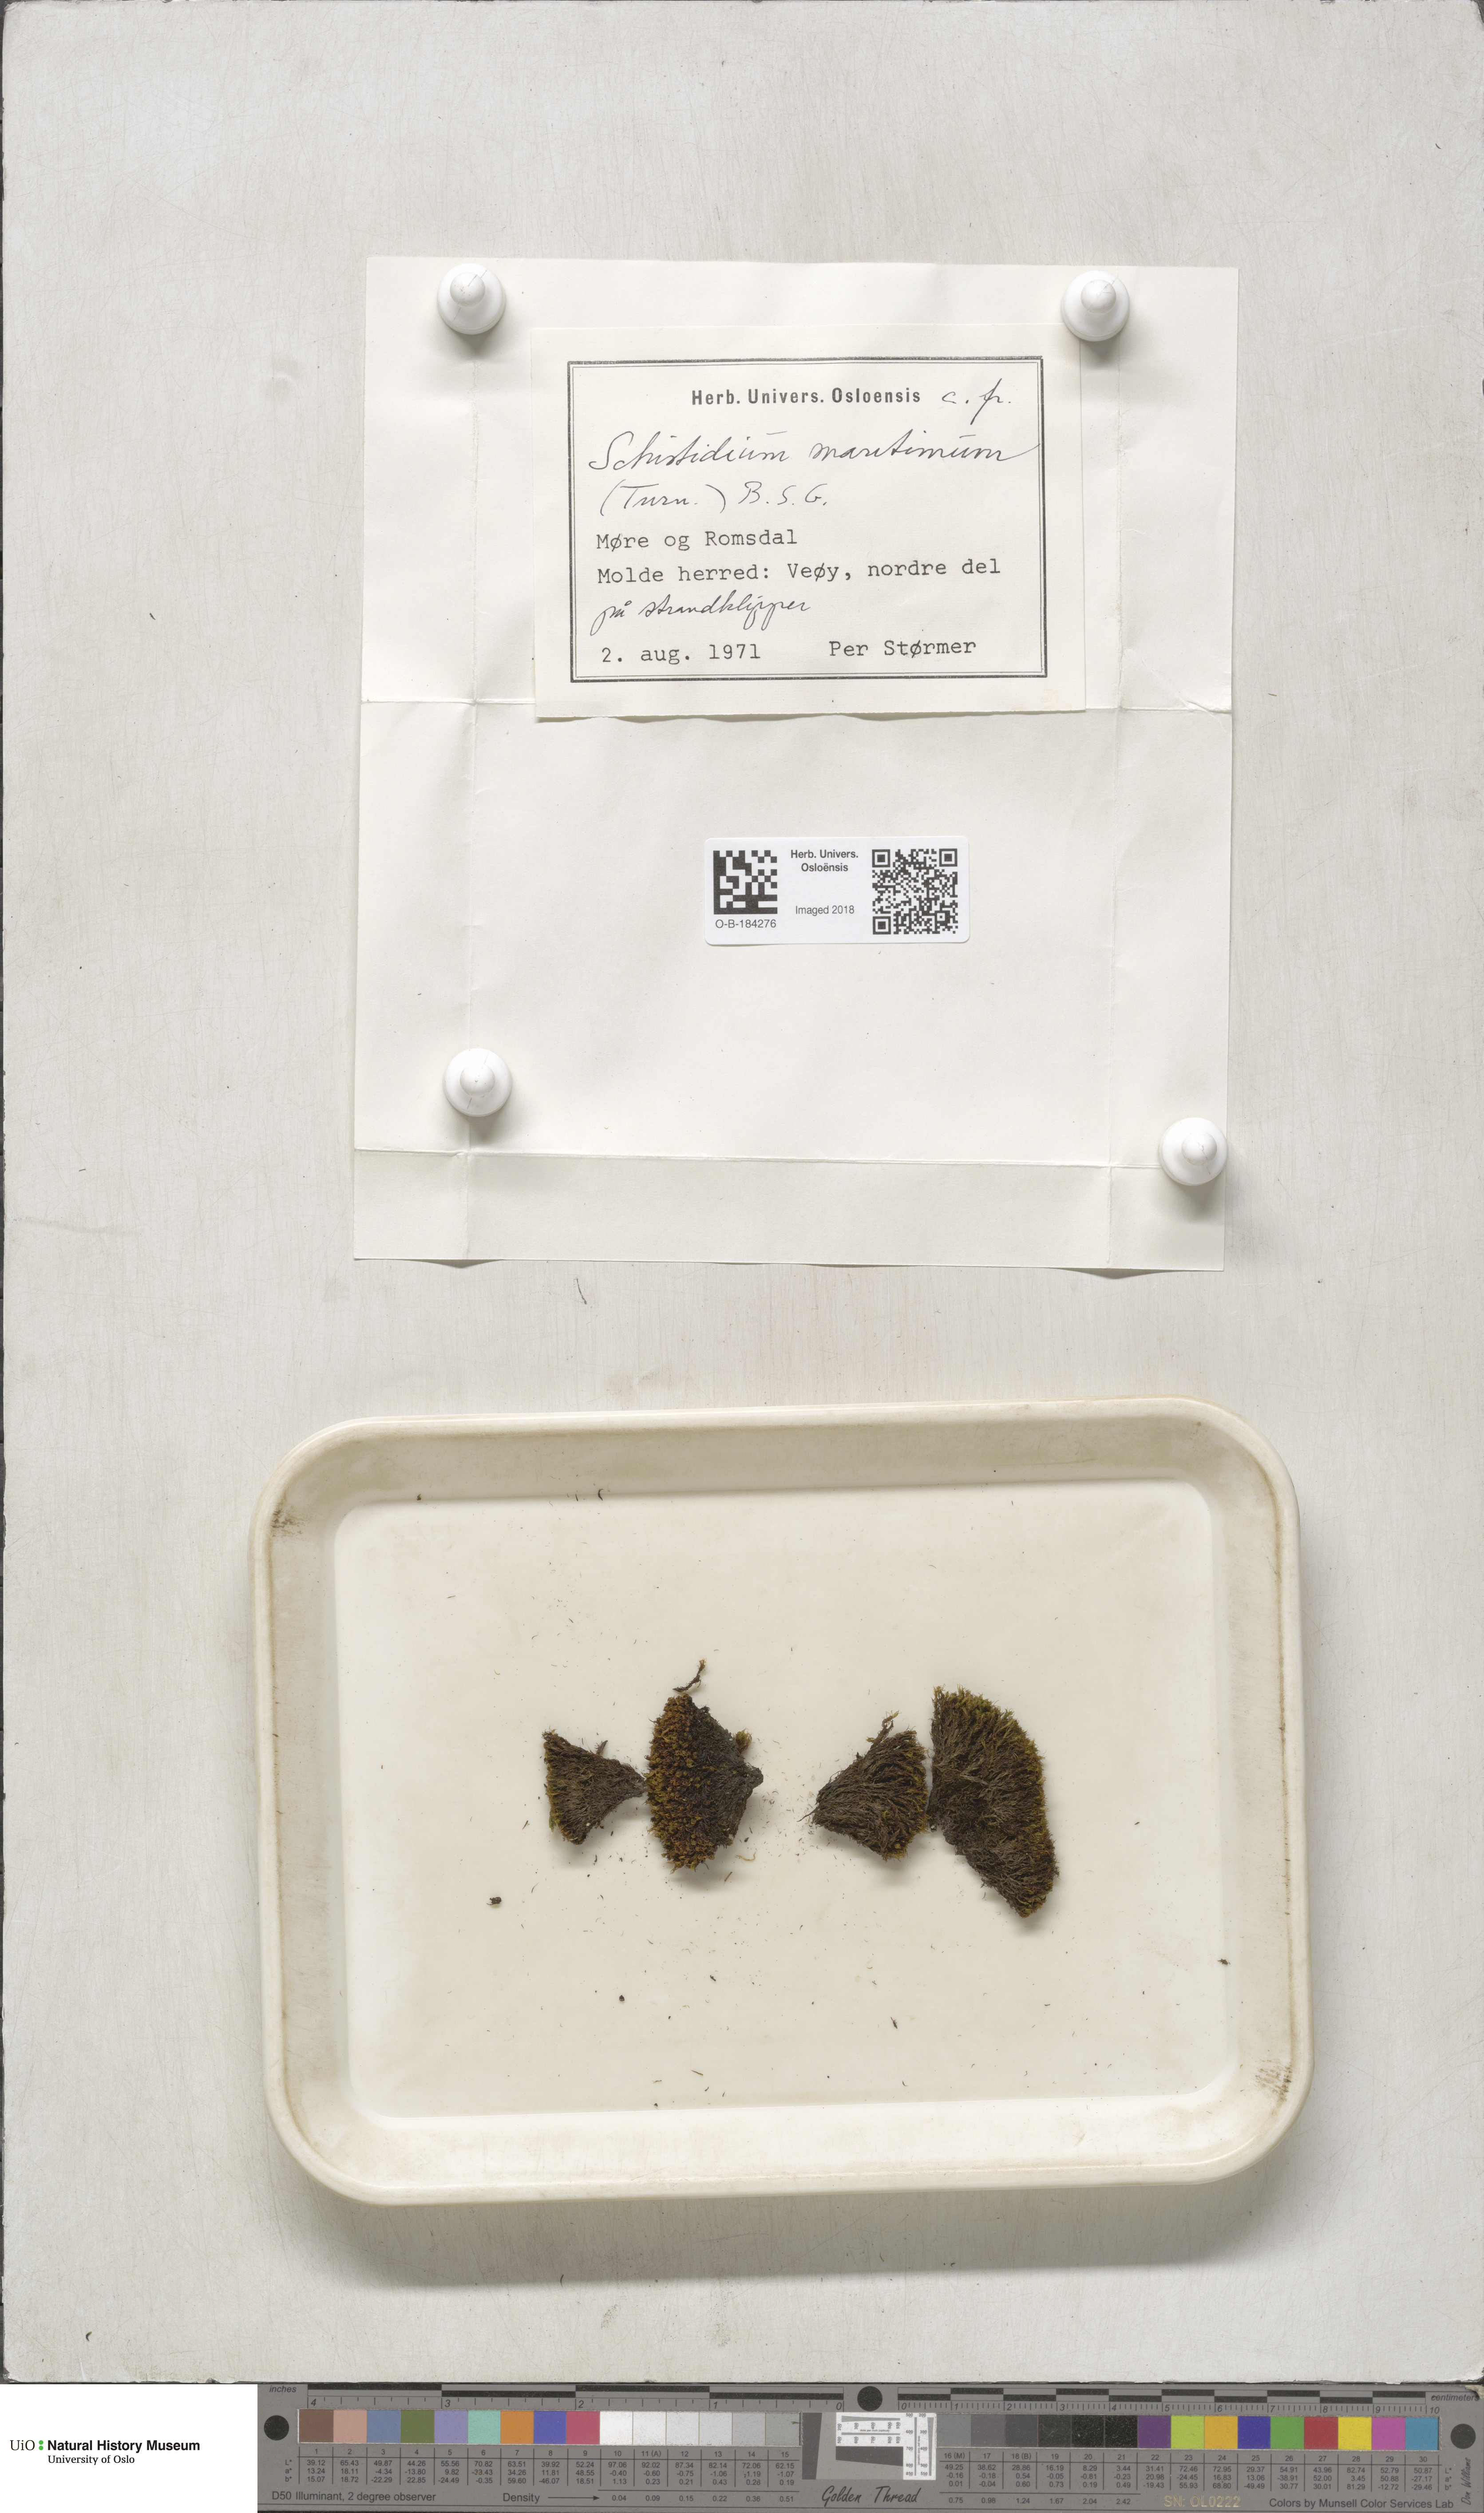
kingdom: Plantae
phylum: Bryophyta
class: Bryopsida
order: Grimmiales
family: Grimmiaceae
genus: Schistidium
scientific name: Schistidium maritimum
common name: Seaside bloom moss
